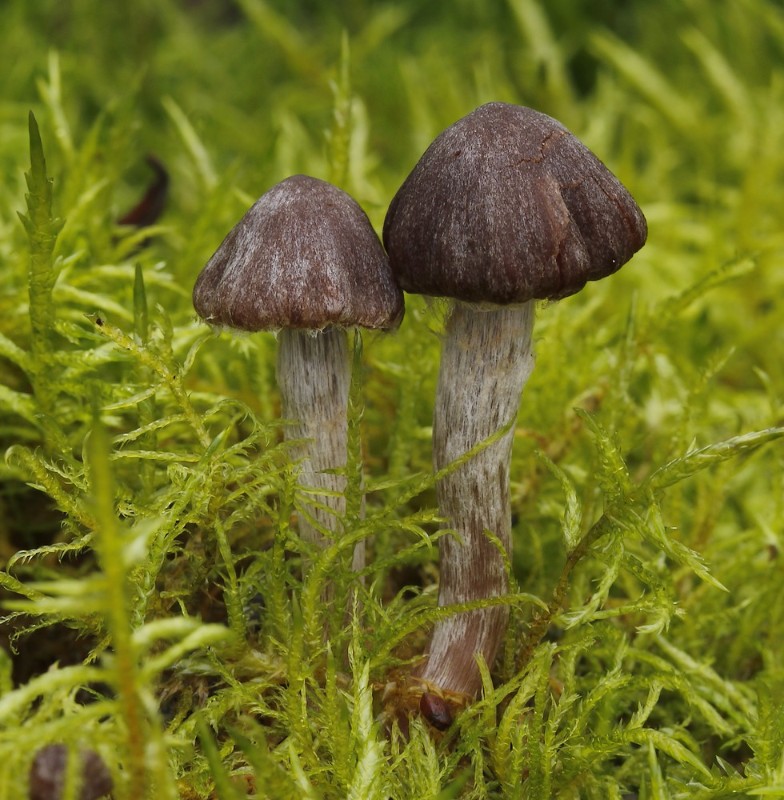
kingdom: Fungi
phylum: Basidiomycota
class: Agaricomycetes
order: Agaricales
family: Cortinariaceae
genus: Cortinarius
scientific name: Cortinarius
